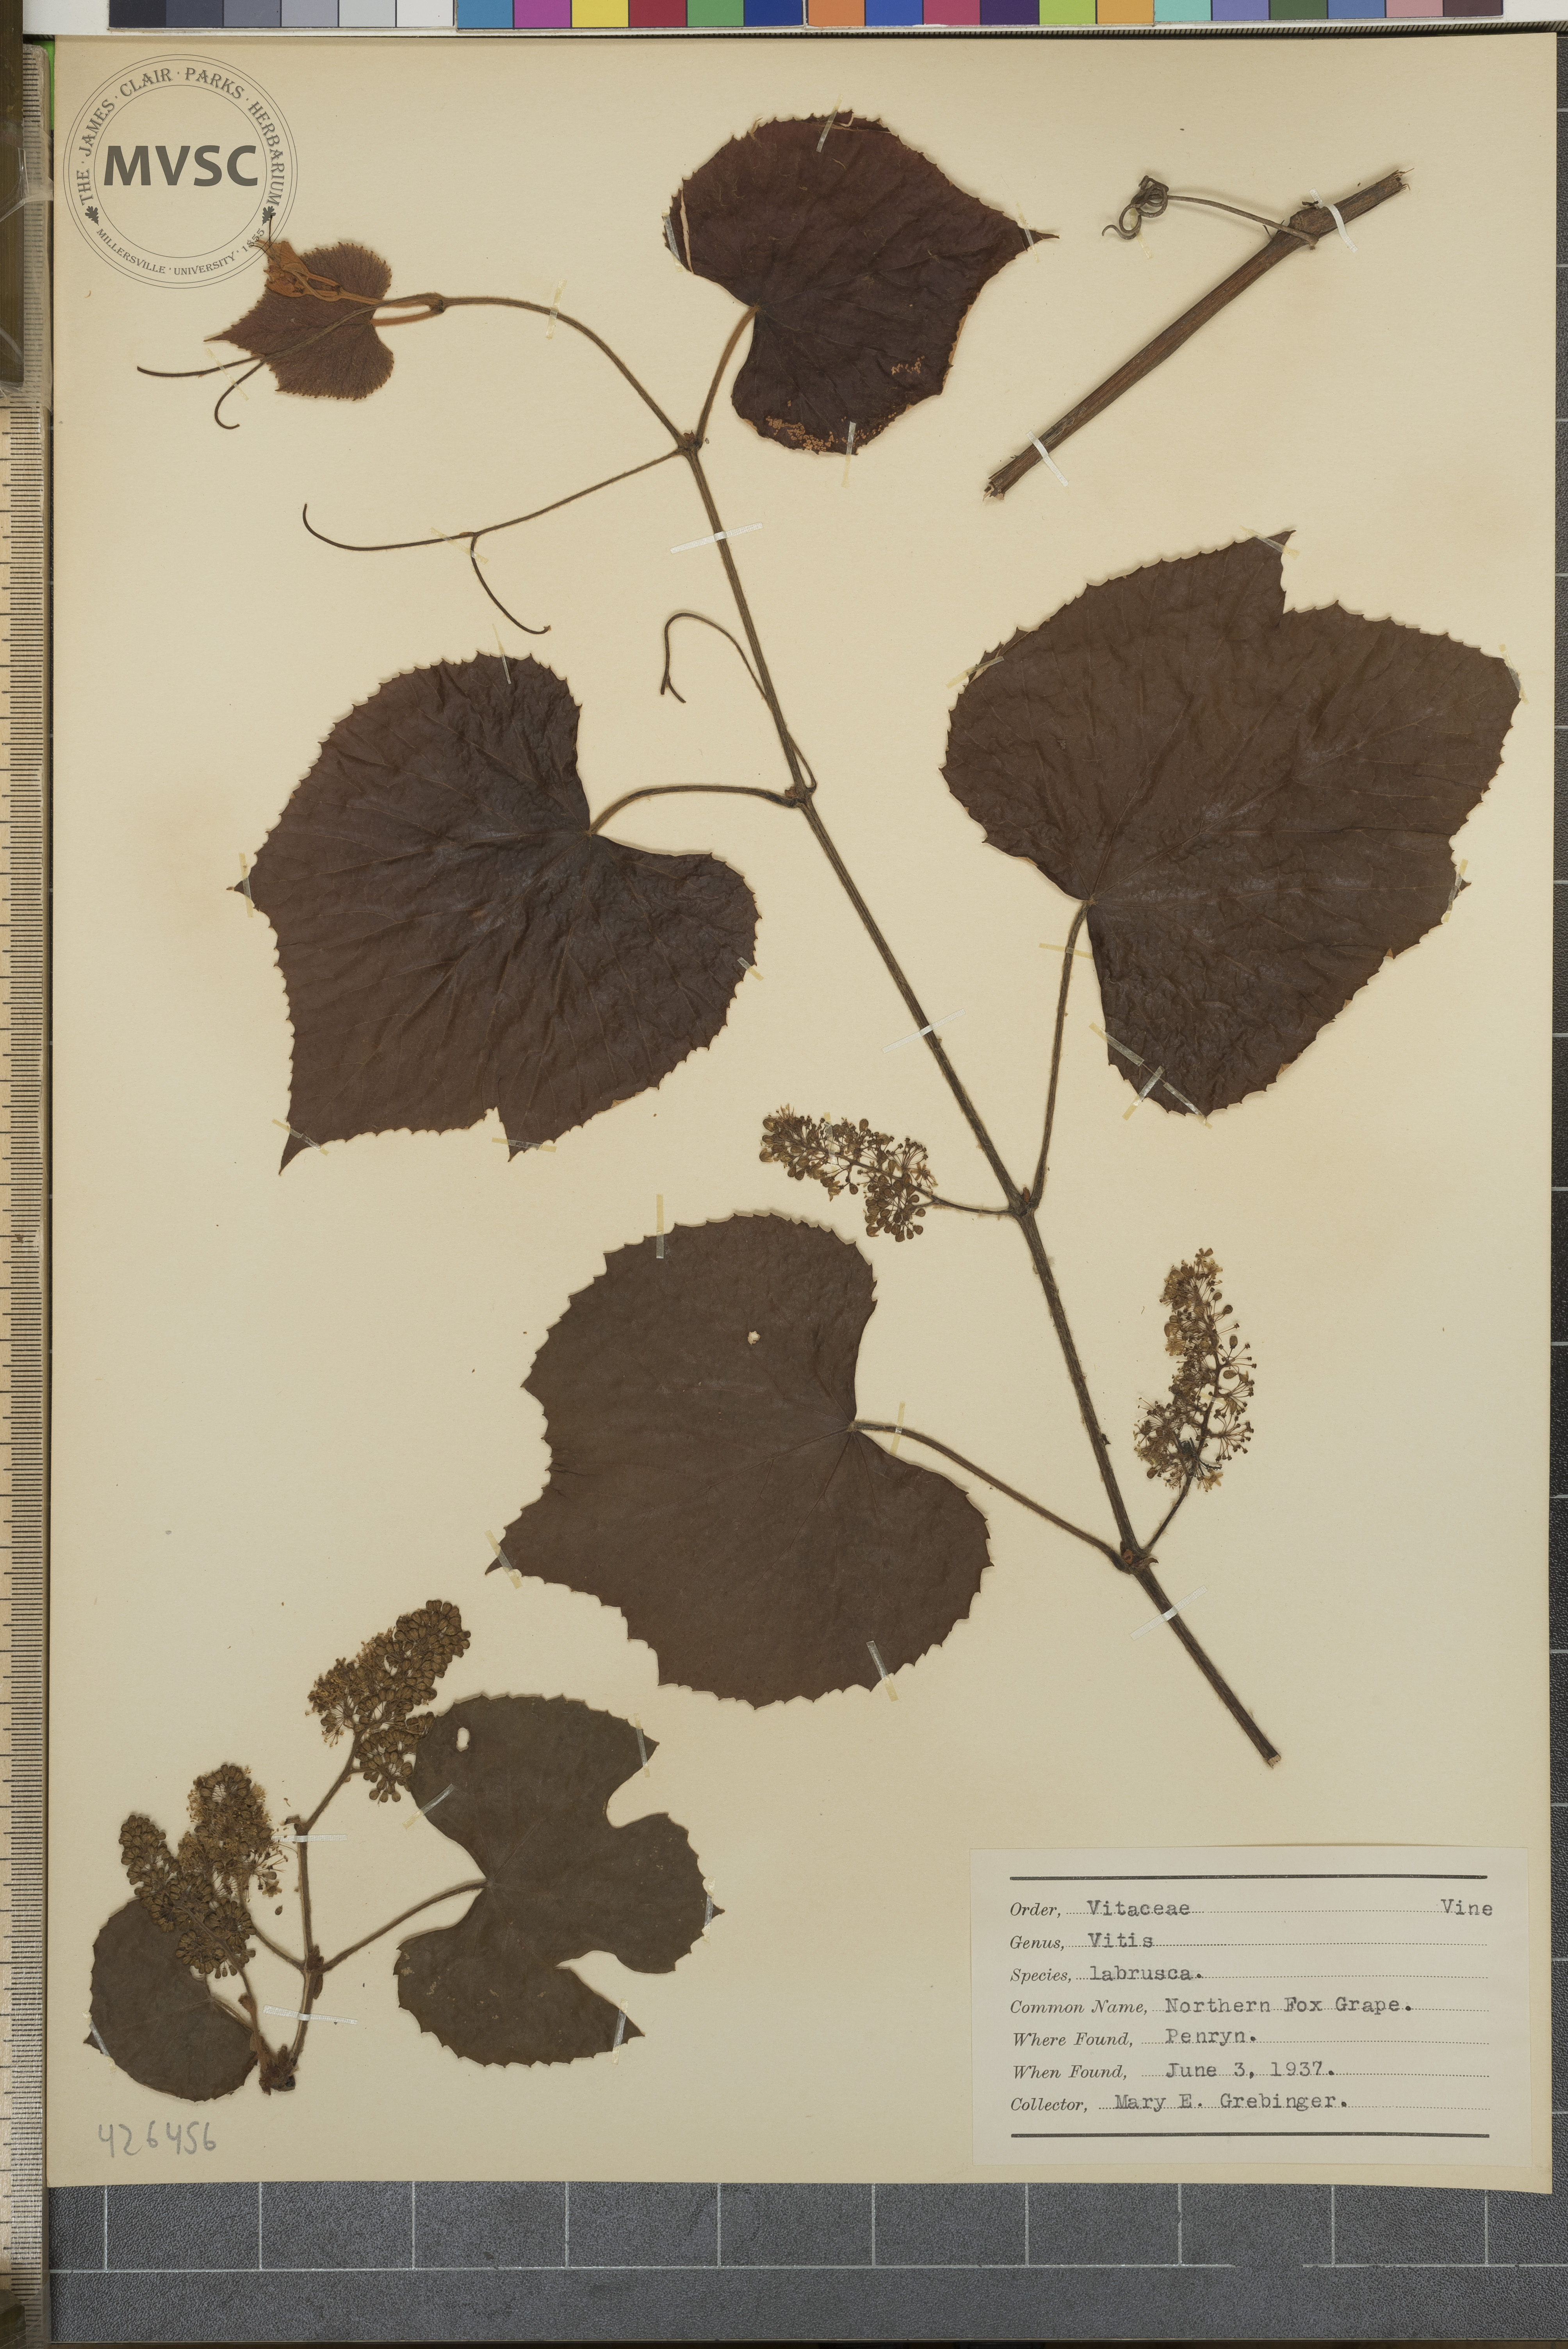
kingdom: Plantae
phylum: Tracheophyta
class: Magnoliopsida
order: Vitales
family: Vitaceae
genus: Vitis
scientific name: Vitis labrusca
